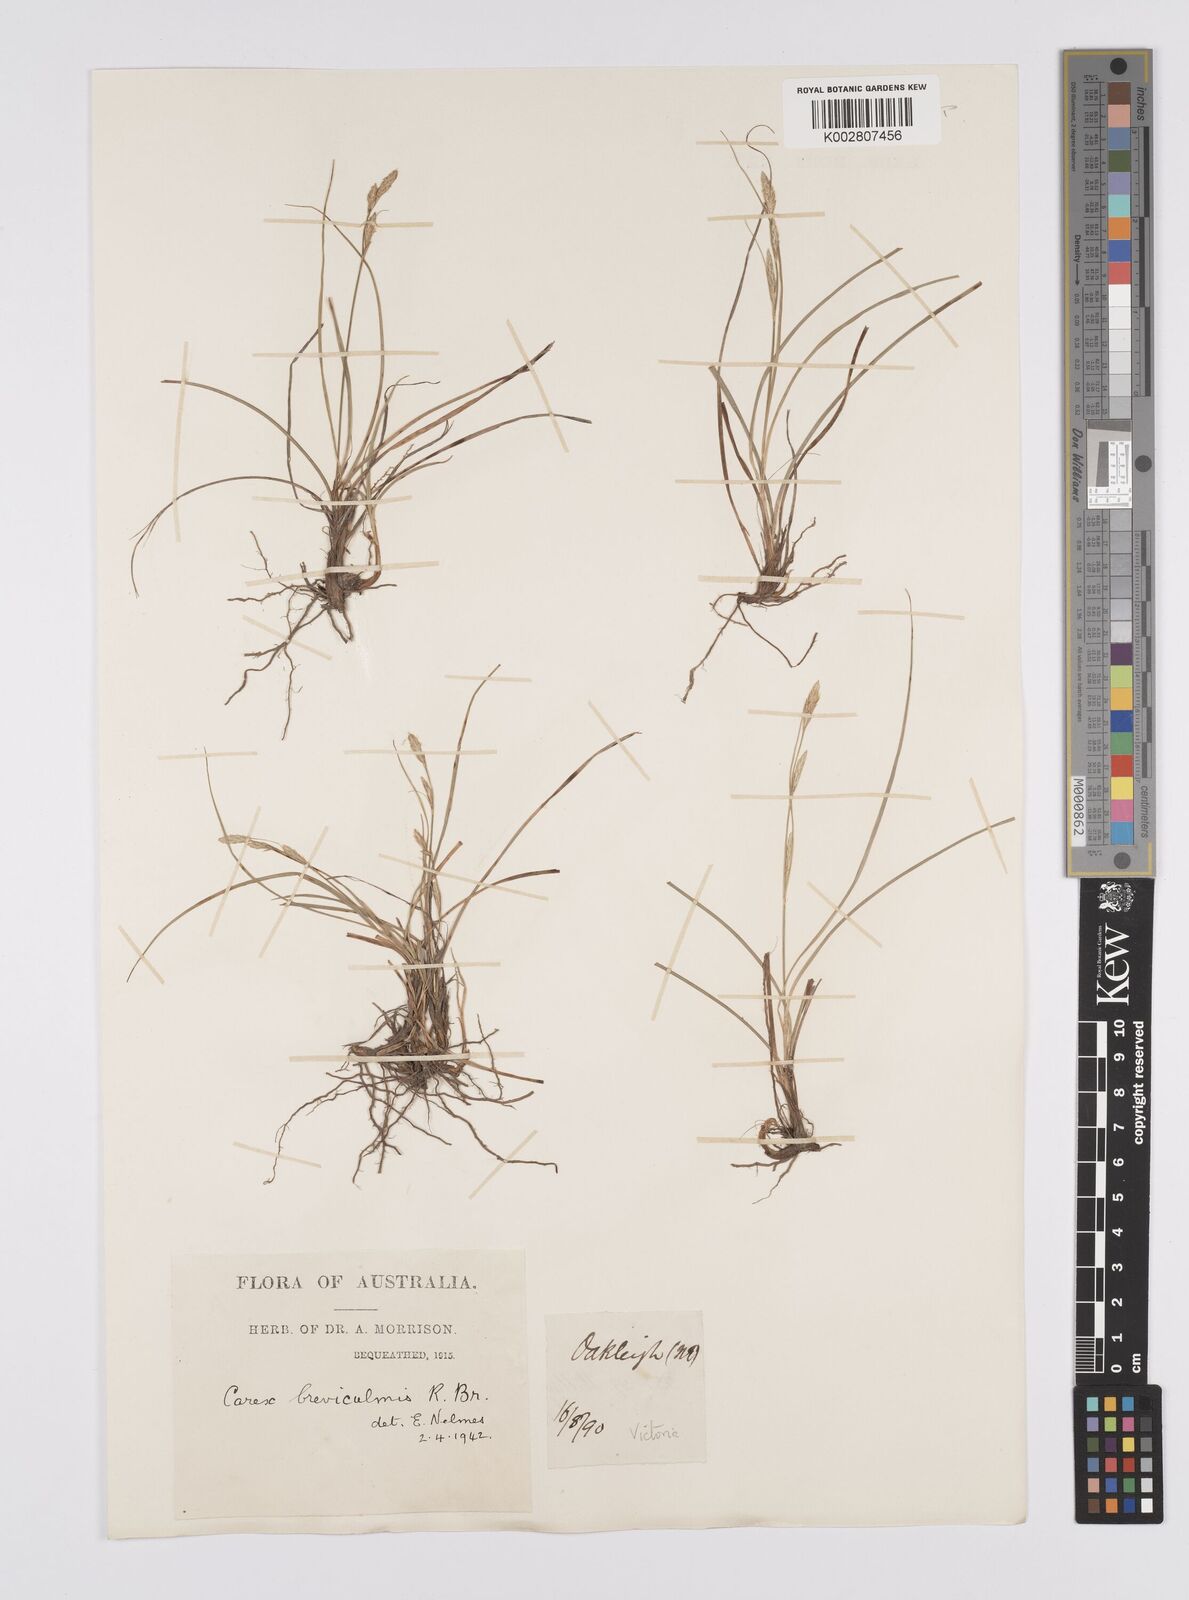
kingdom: Plantae
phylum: Tracheophyta
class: Liliopsida
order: Poales
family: Cyperaceae
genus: Carex
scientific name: Carex breviculmis
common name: Asian shortstem sedge
